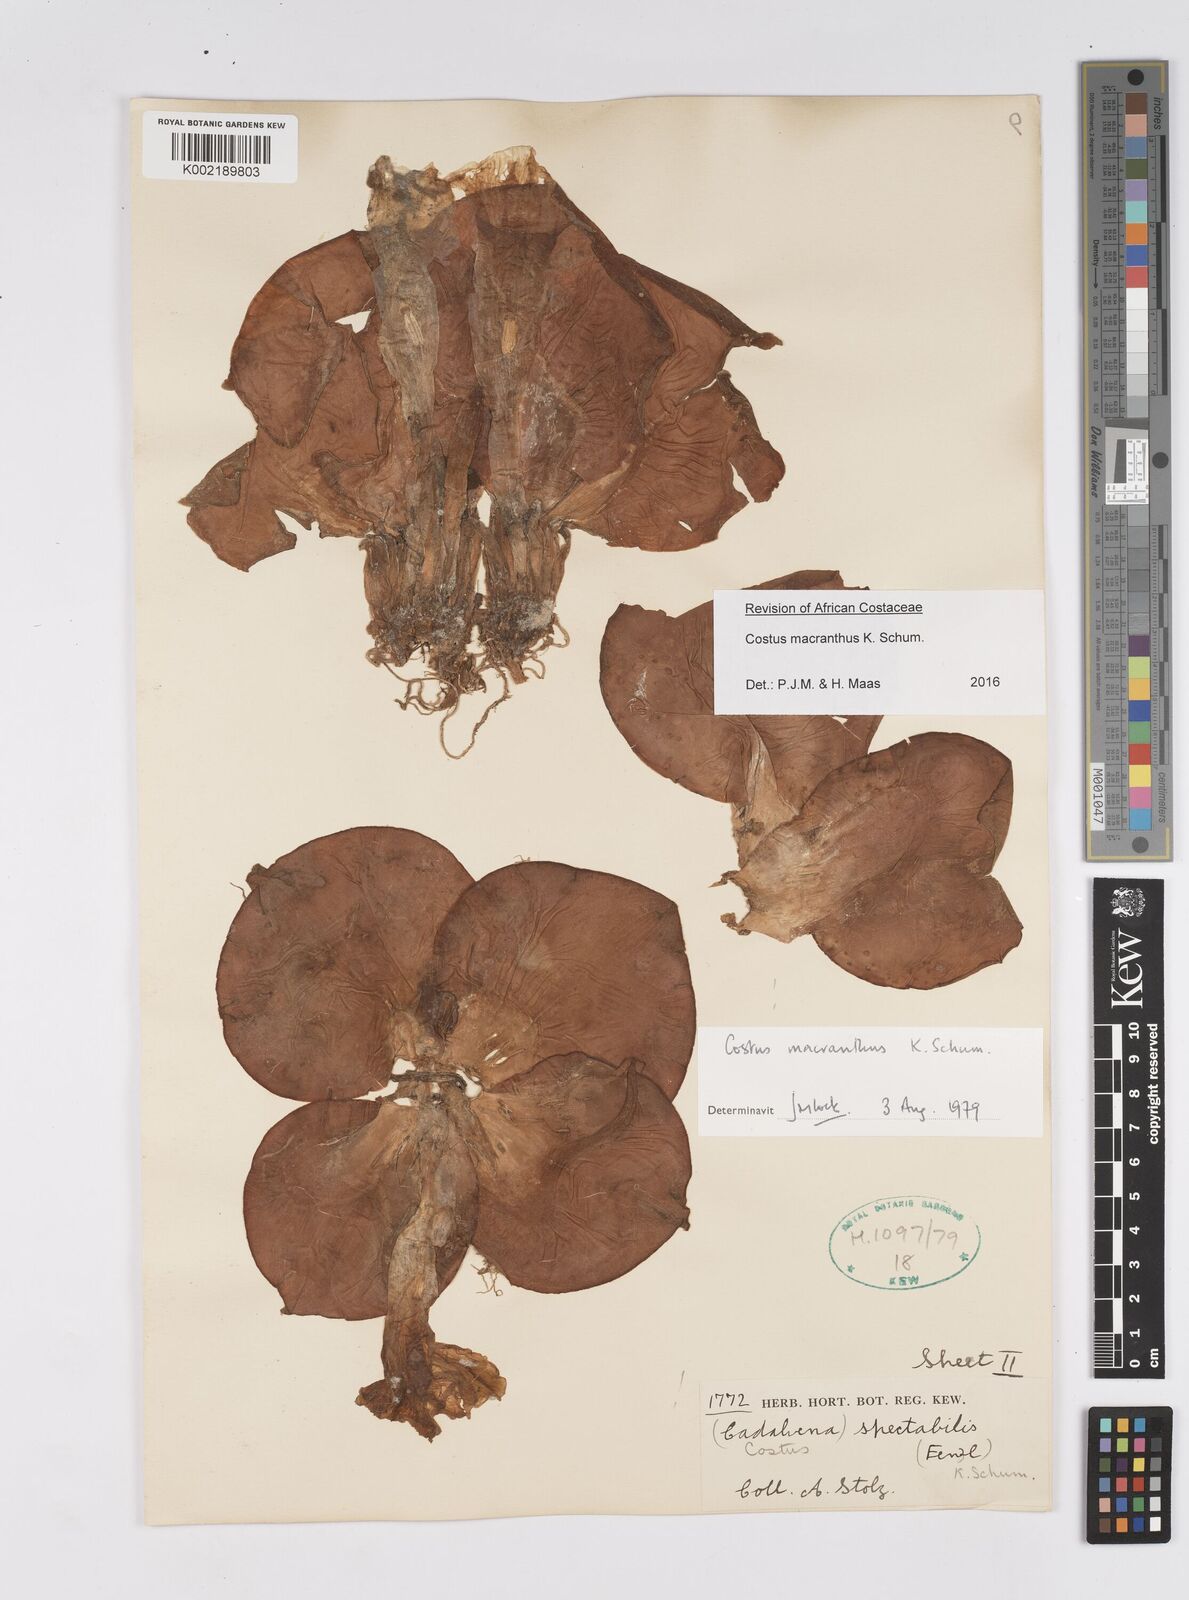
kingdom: Plantae
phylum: Tracheophyta
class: Liliopsida
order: Zingiberales
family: Costaceae
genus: Costus
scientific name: Costus macranthus
